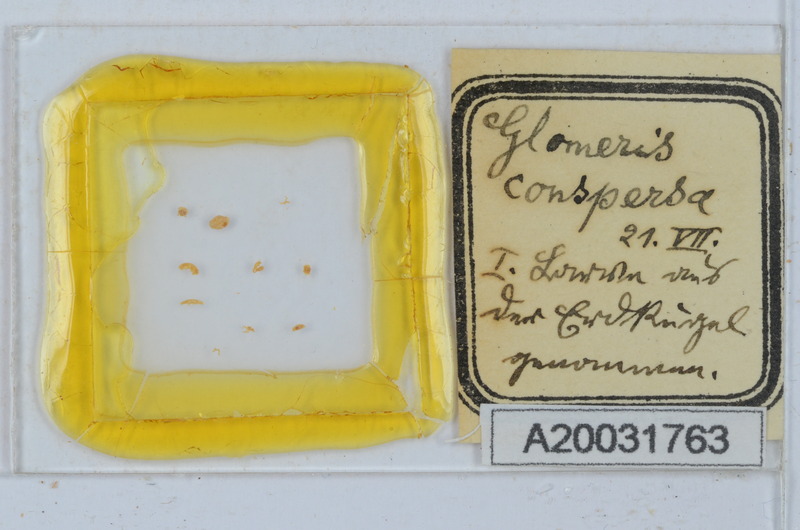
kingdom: Animalia
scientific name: Animalia
